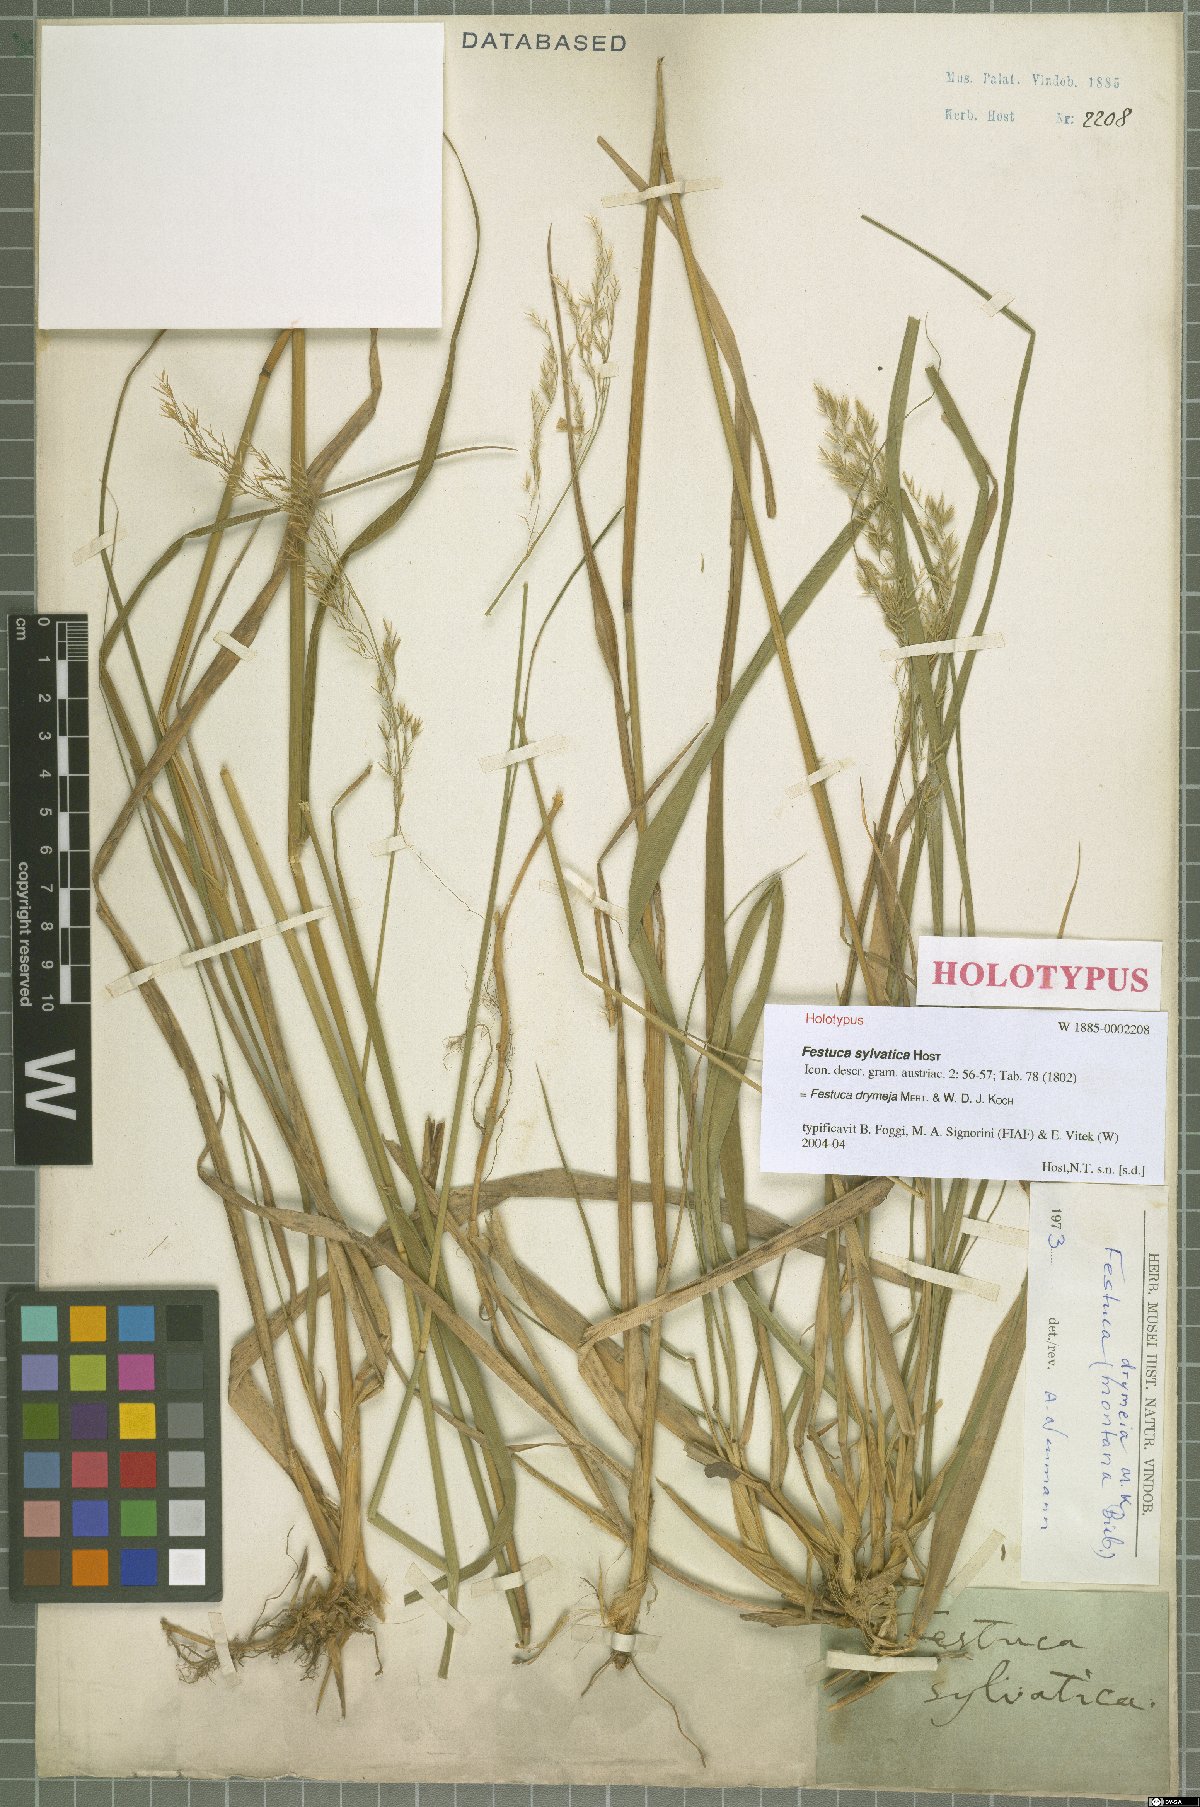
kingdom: Plantae
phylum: Tracheophyta
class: Liliopsida
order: Poales
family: Poaceae
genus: Festuca
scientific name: Festuca drymeja
